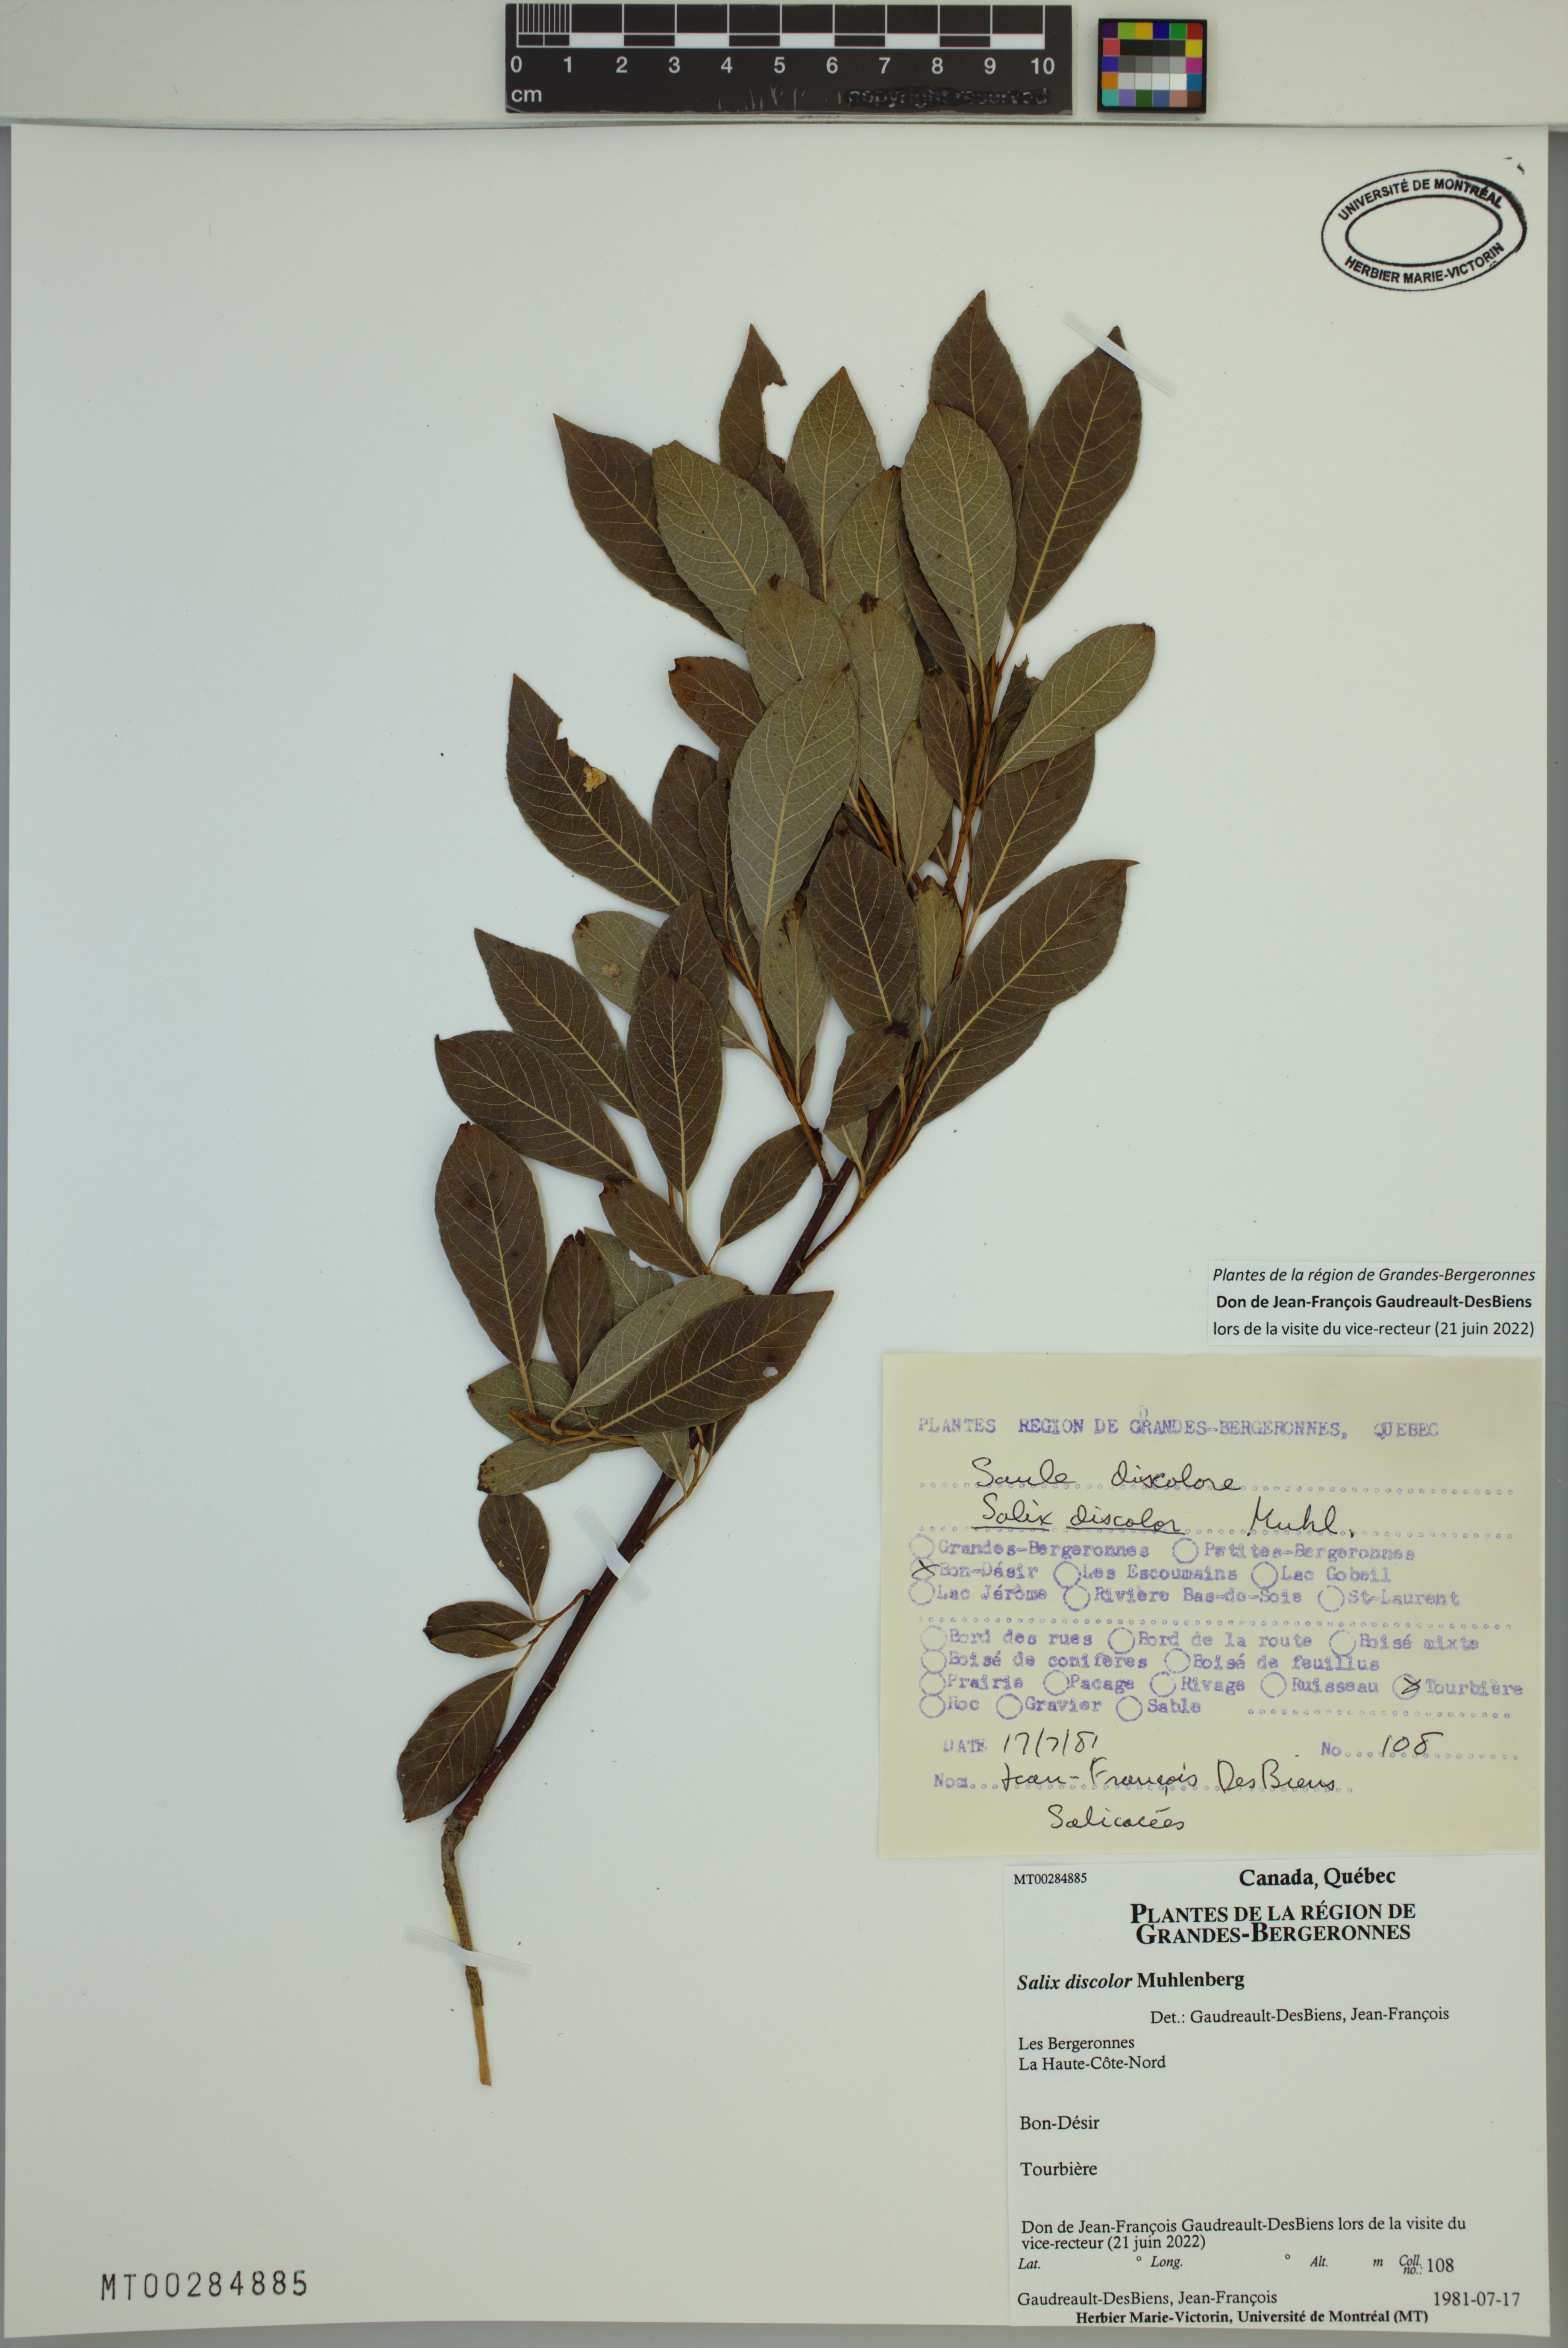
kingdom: Plantae
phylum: Tracheophyta
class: Magnoliopsida
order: Malpighiales
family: Salicaceae
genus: Salix
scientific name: Salix discolor
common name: Glaucous willow
